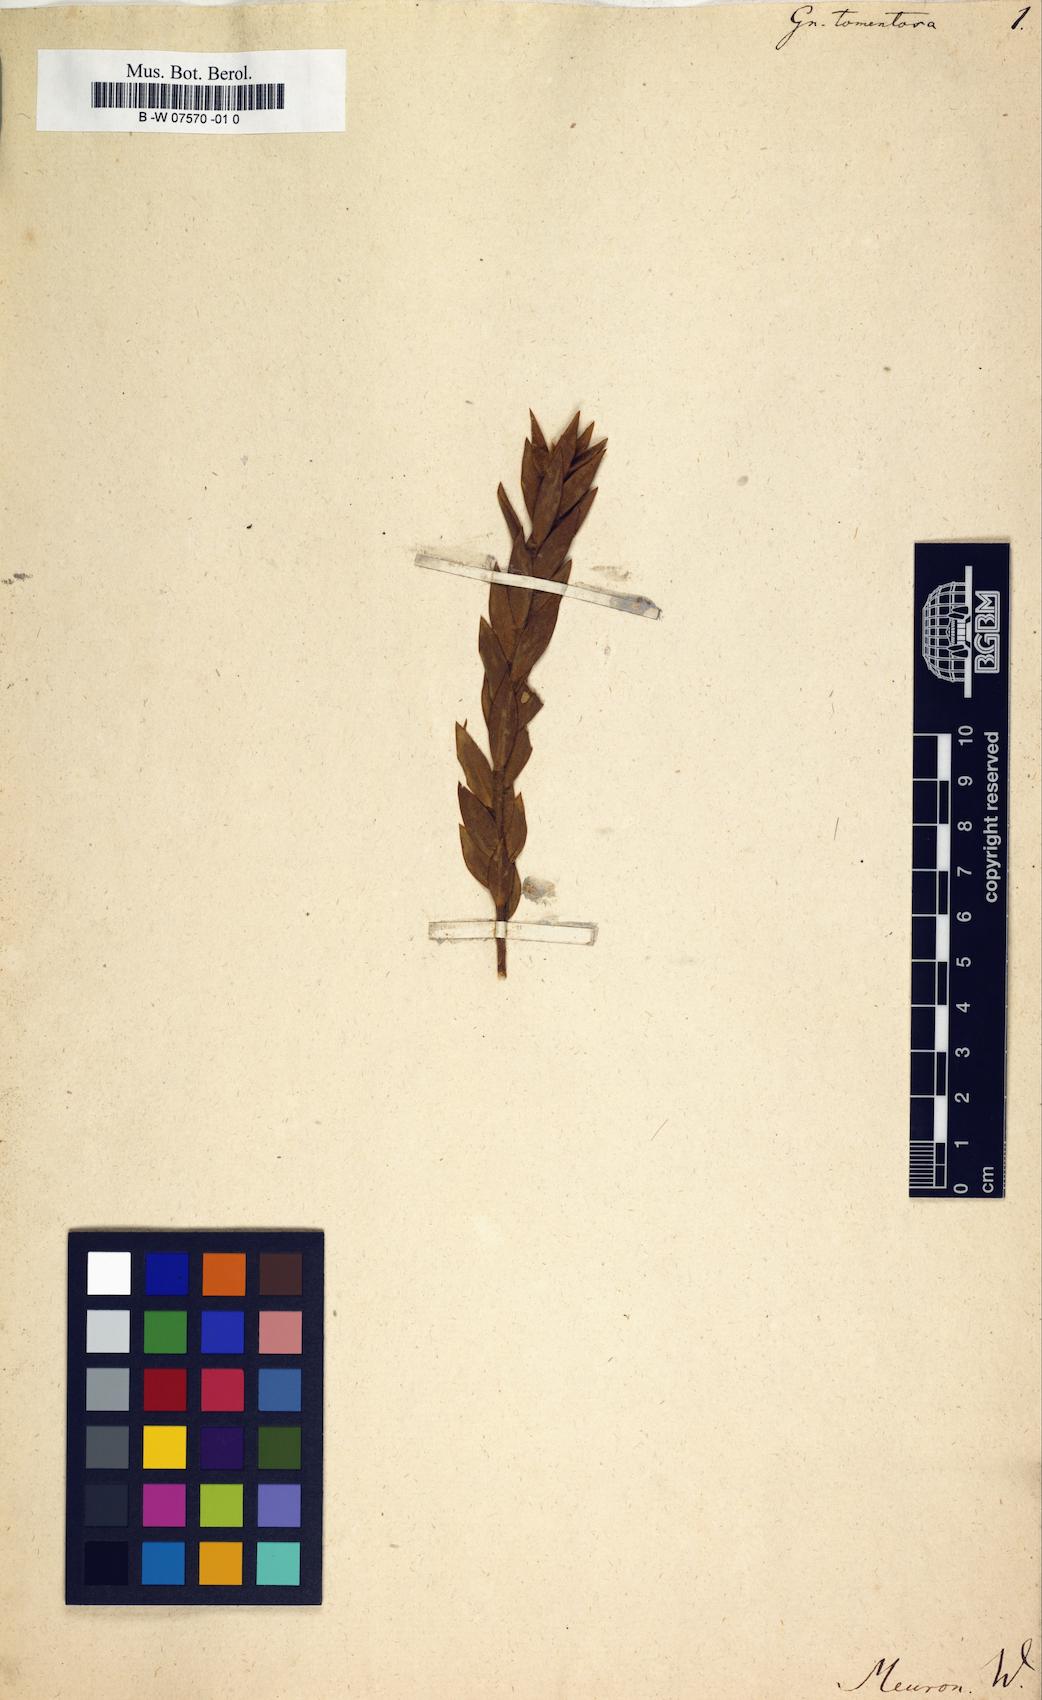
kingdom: Plantae
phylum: Tracheophyta
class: Magnoliopsida
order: Malvales
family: Thymelaeaceae
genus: Gnidia
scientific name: Gnidia tomentosa
